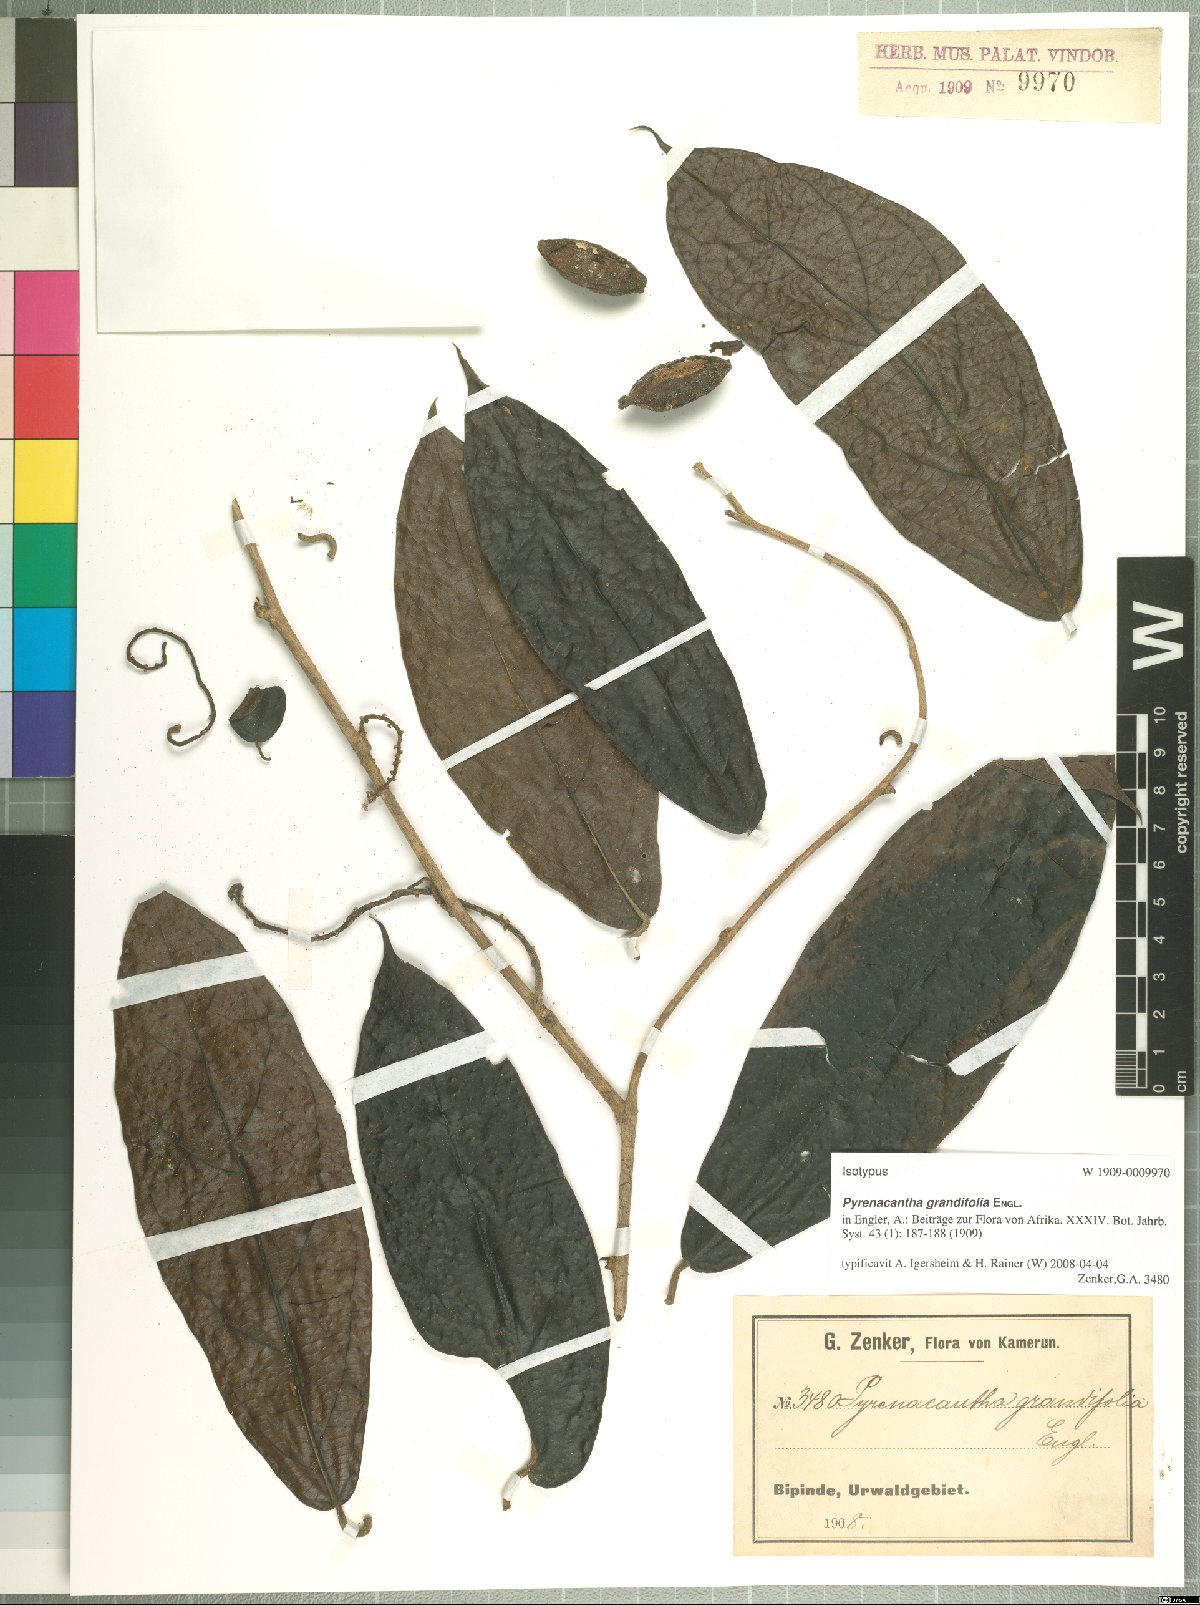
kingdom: Plantae
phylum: Tracheophyta
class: Magnoliopsida
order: Icacinales
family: Icacinaceae
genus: Pyrenacantha
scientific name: Pyrenacantha grandifolia
